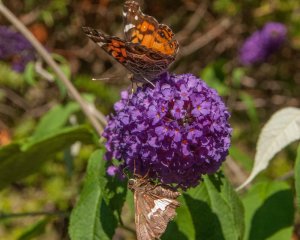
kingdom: Animalia
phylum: Arthropoda
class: Insecta
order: Lepidoptera
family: Hesperiidae
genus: Epargyreus
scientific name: Epargyreus clarus
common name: Silver-spotted Skipper
